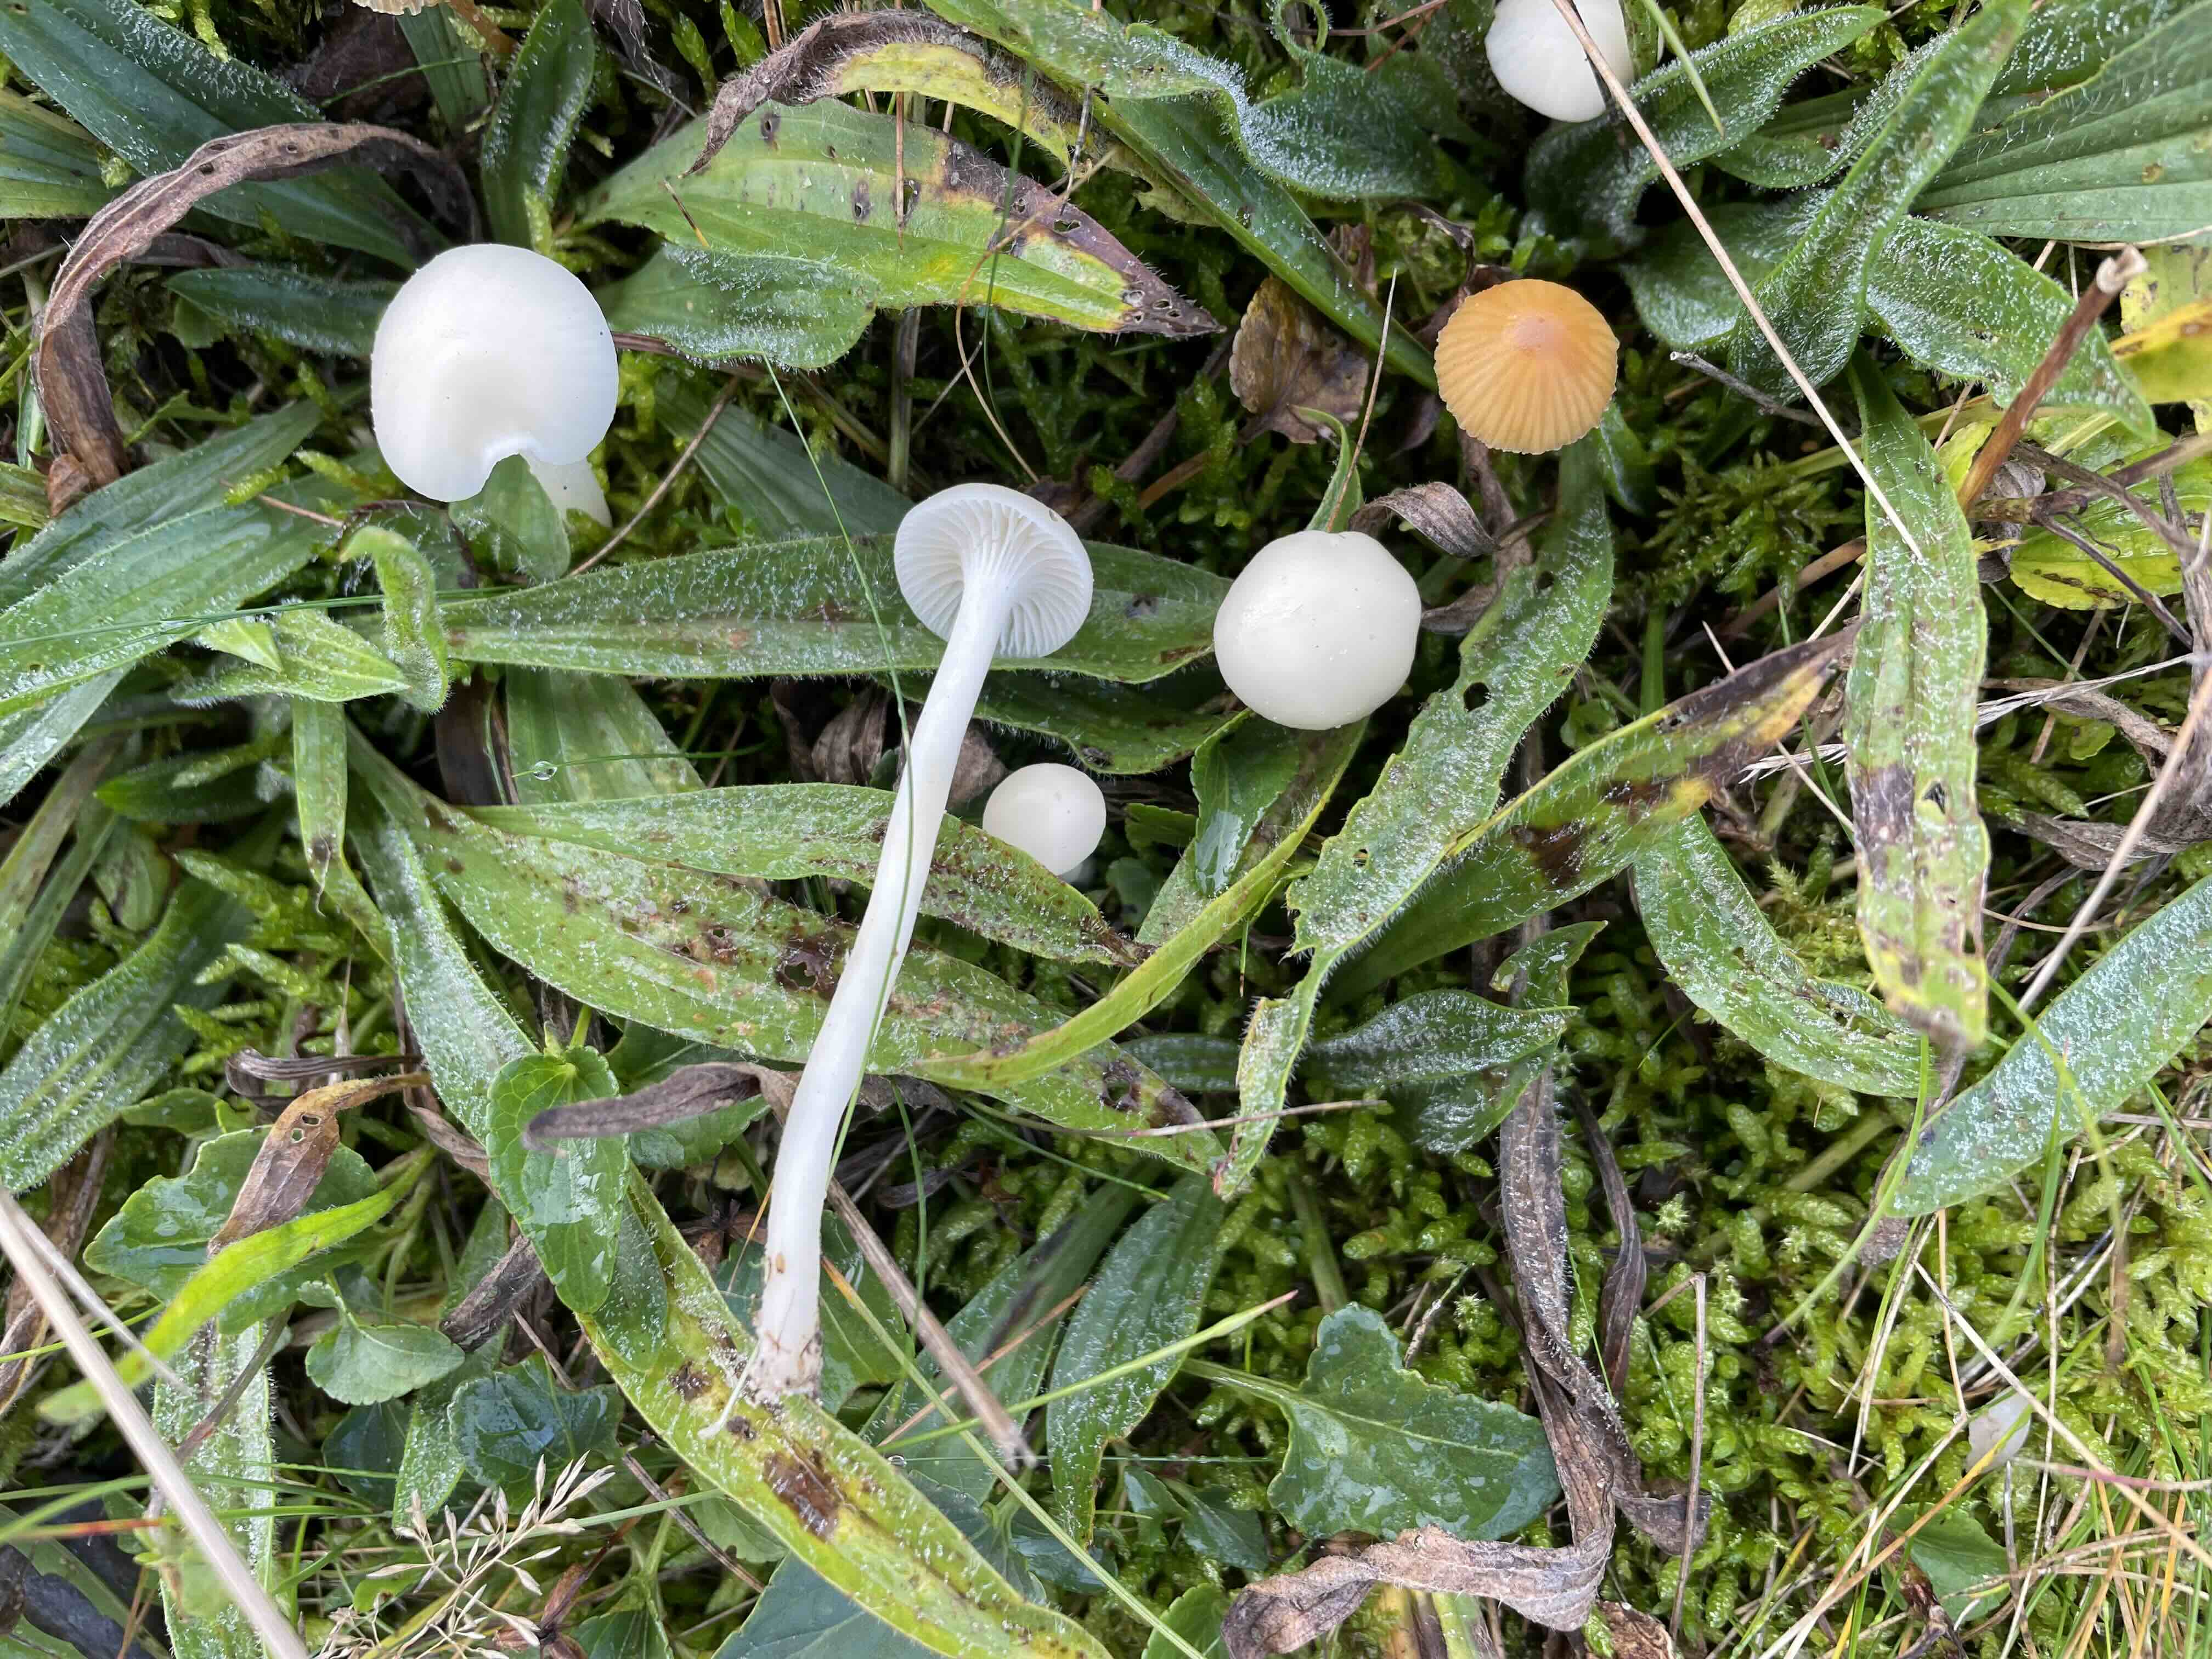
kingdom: Fungi
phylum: Basidiomycota
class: Agaricomycetes
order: Agaricales
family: Hygrophoraceae
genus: Cuphophyllus
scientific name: Cuphophyllus virgineus
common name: snehvid vokshat
